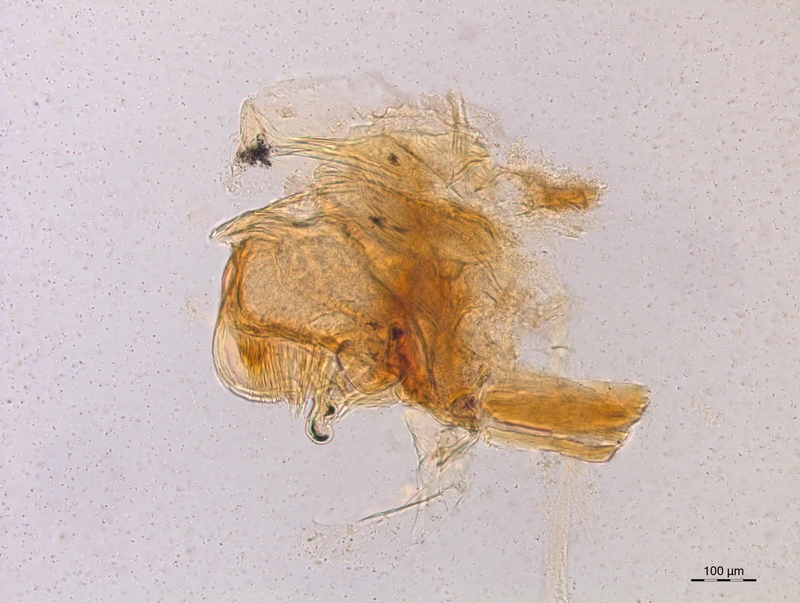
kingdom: Animalia
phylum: Arthropoda
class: Diplopoda
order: Chordeumatida
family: Craspedosomatidae
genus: Craspedosoma
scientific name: Craspedosoma taurinorum
